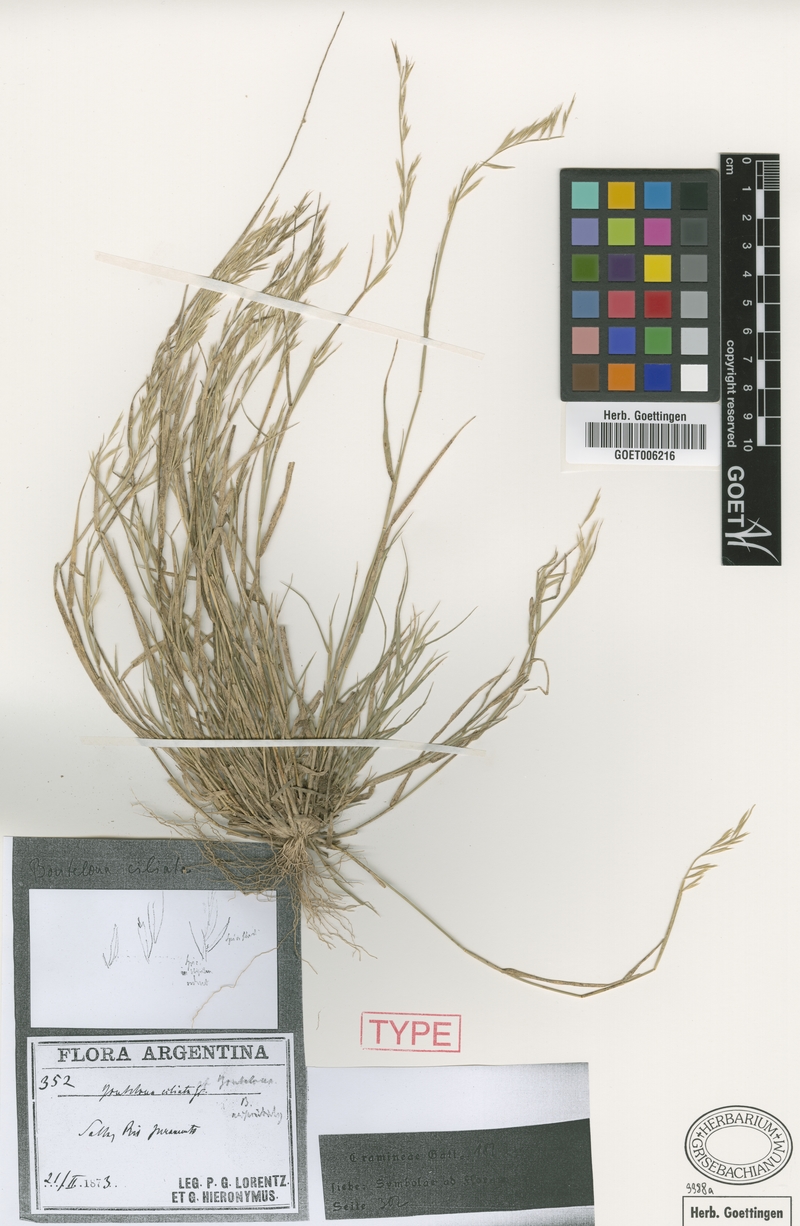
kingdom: Plantae
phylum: Tracheophyta
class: Liliopsida
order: Poales
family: Poaceae
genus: Bouteloua
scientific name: Bouteloua aristidoides
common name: Needle grama
